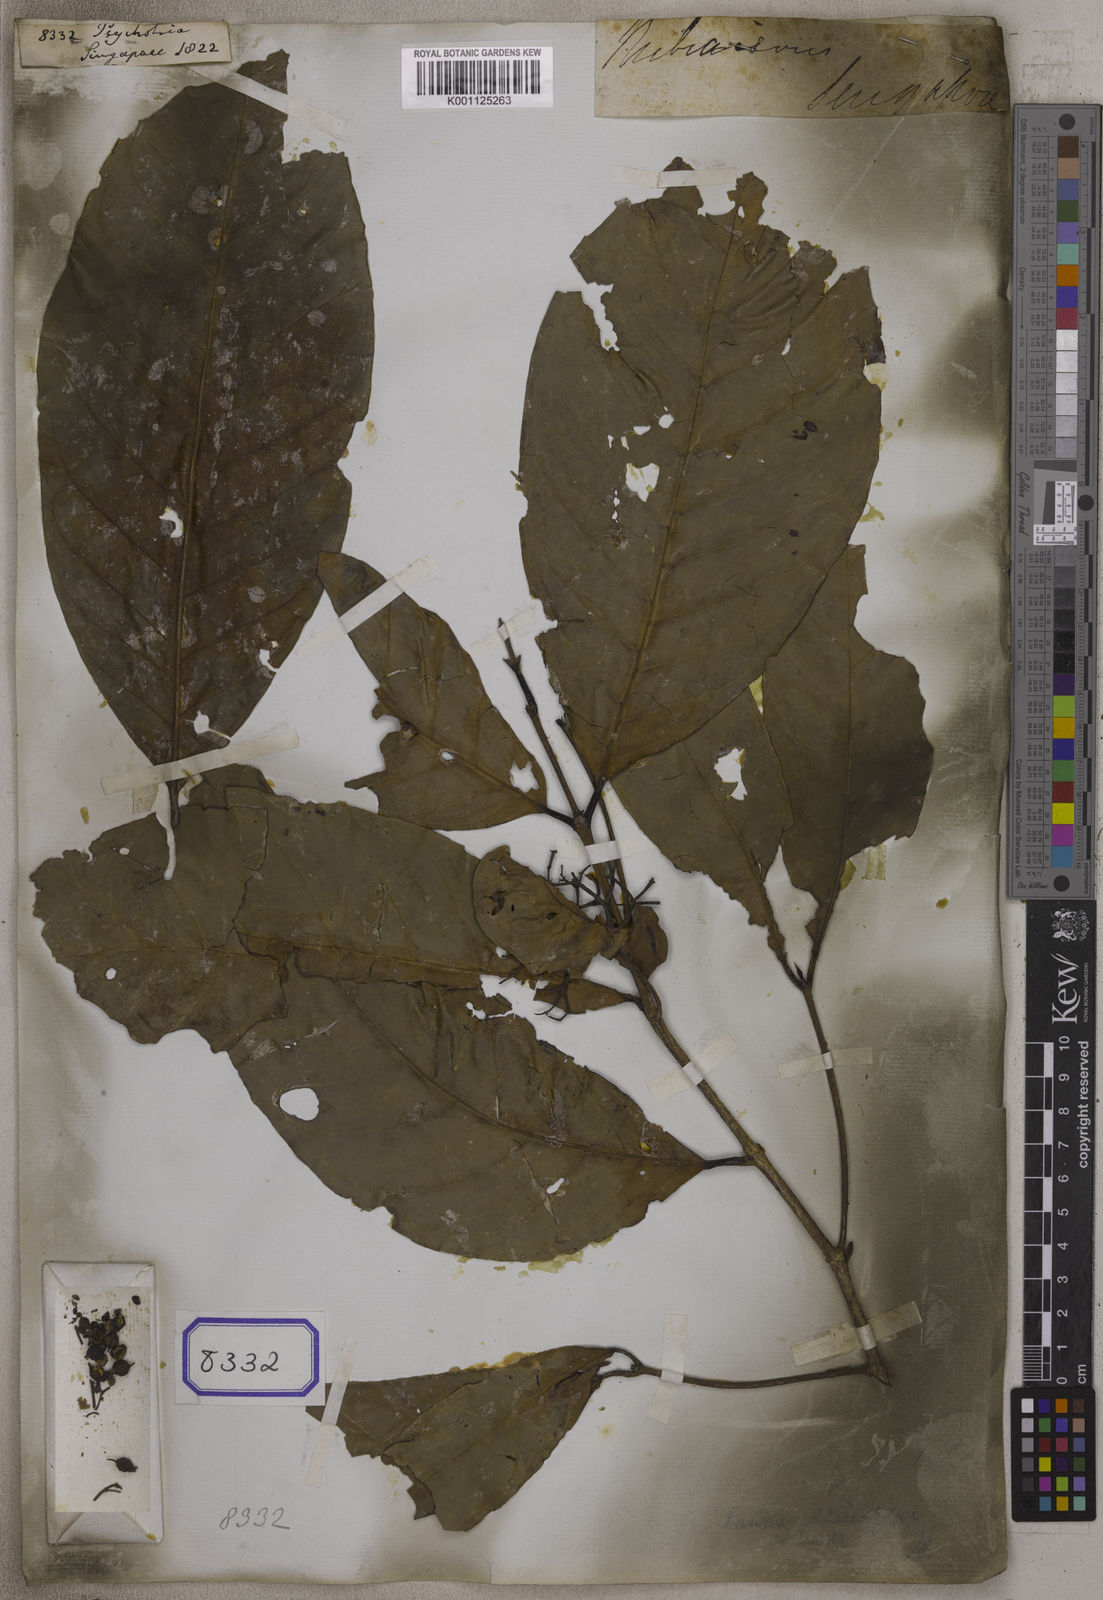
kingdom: Plantae
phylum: Tracheophyta
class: Magnoliopsida
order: Gentianales
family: Rubiaceae
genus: Psychotria
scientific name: Psychotria
